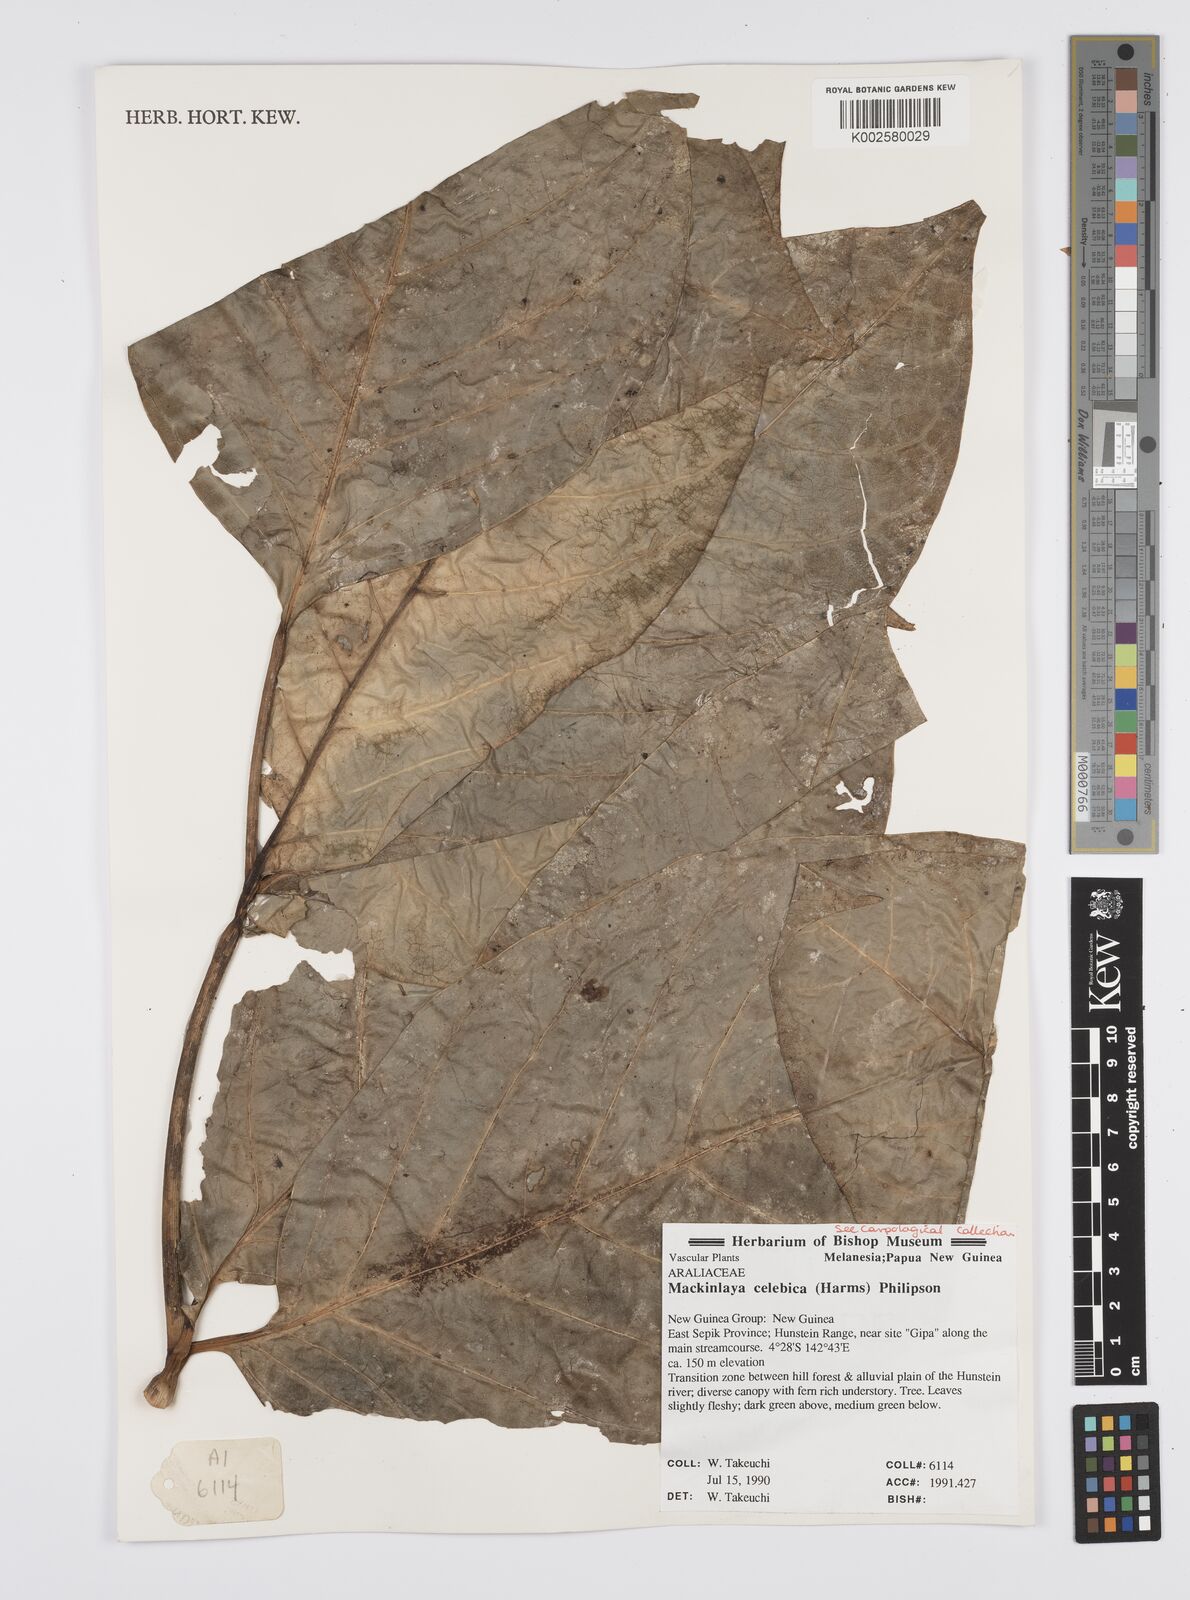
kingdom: Plantae
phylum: Tracheophyta
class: Magnoliopsida
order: Apiales
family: Apiaceae
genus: Mackinlaya
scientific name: Mackinlaya celebica
